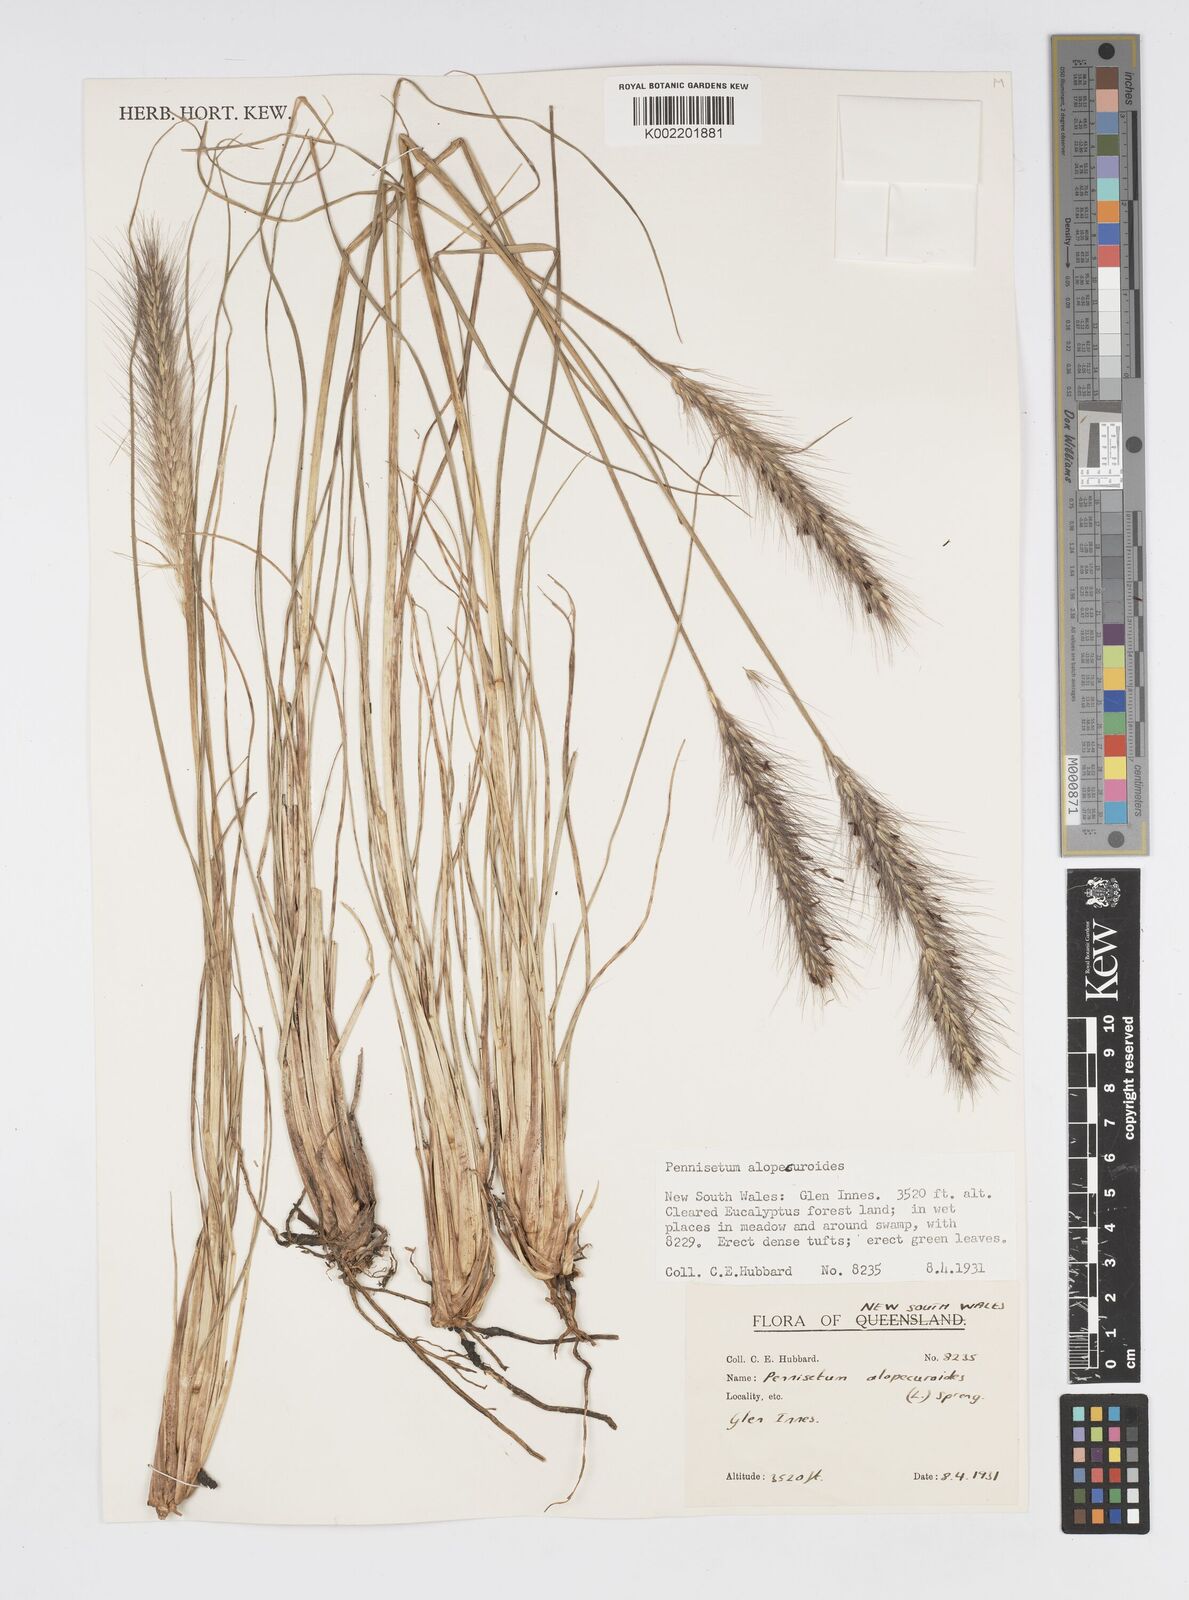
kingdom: Plantae
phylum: Tracheophyta
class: Liliopsida
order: Poales
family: Poaceae
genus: Cenchrus
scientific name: Cenchrus alopecuroides
